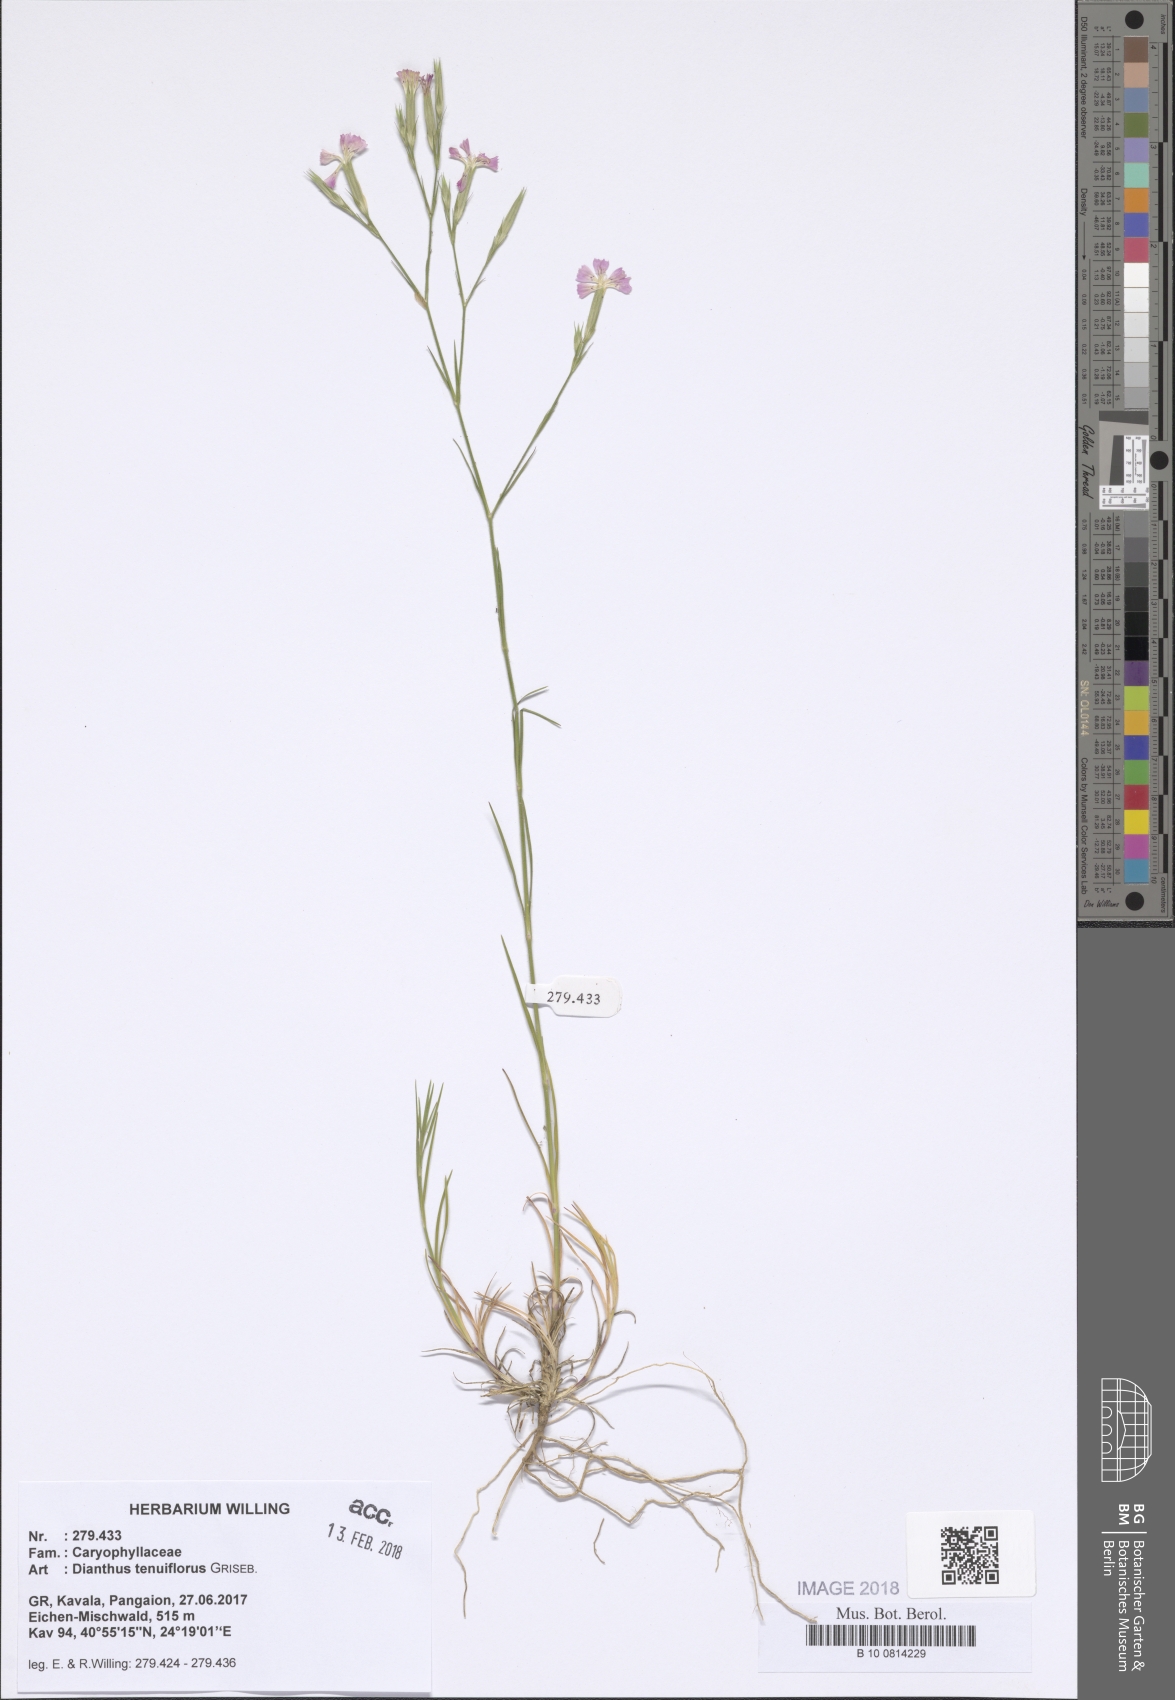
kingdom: Plantae
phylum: Tracheophyta
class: Magnoliopsida
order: Caryophyllales
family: Caryophyllaceae
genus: Dianthus
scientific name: Dianthus tenuiflorus
